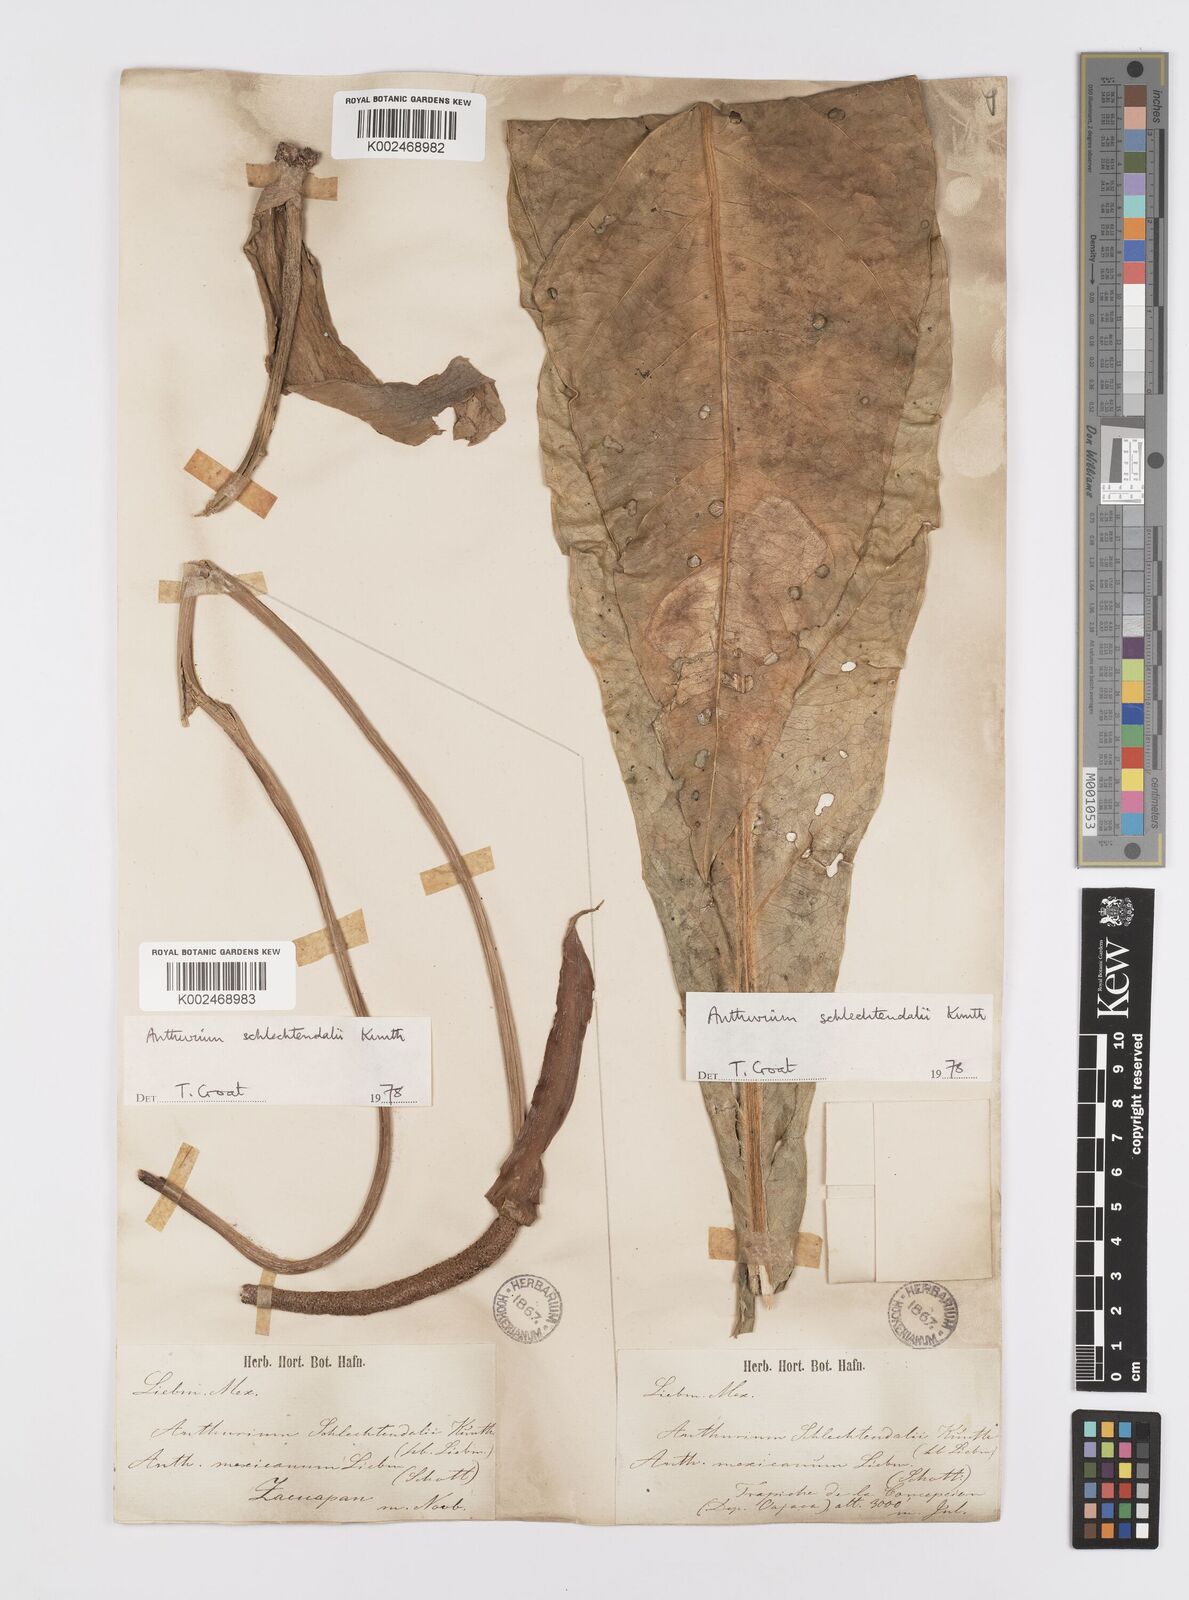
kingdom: Plantae
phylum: Tracheophyta
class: Liliopsida
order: Alismatales
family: Araceae
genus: Anthurium
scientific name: Anthurium schlechtendalii
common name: Laceleaf
